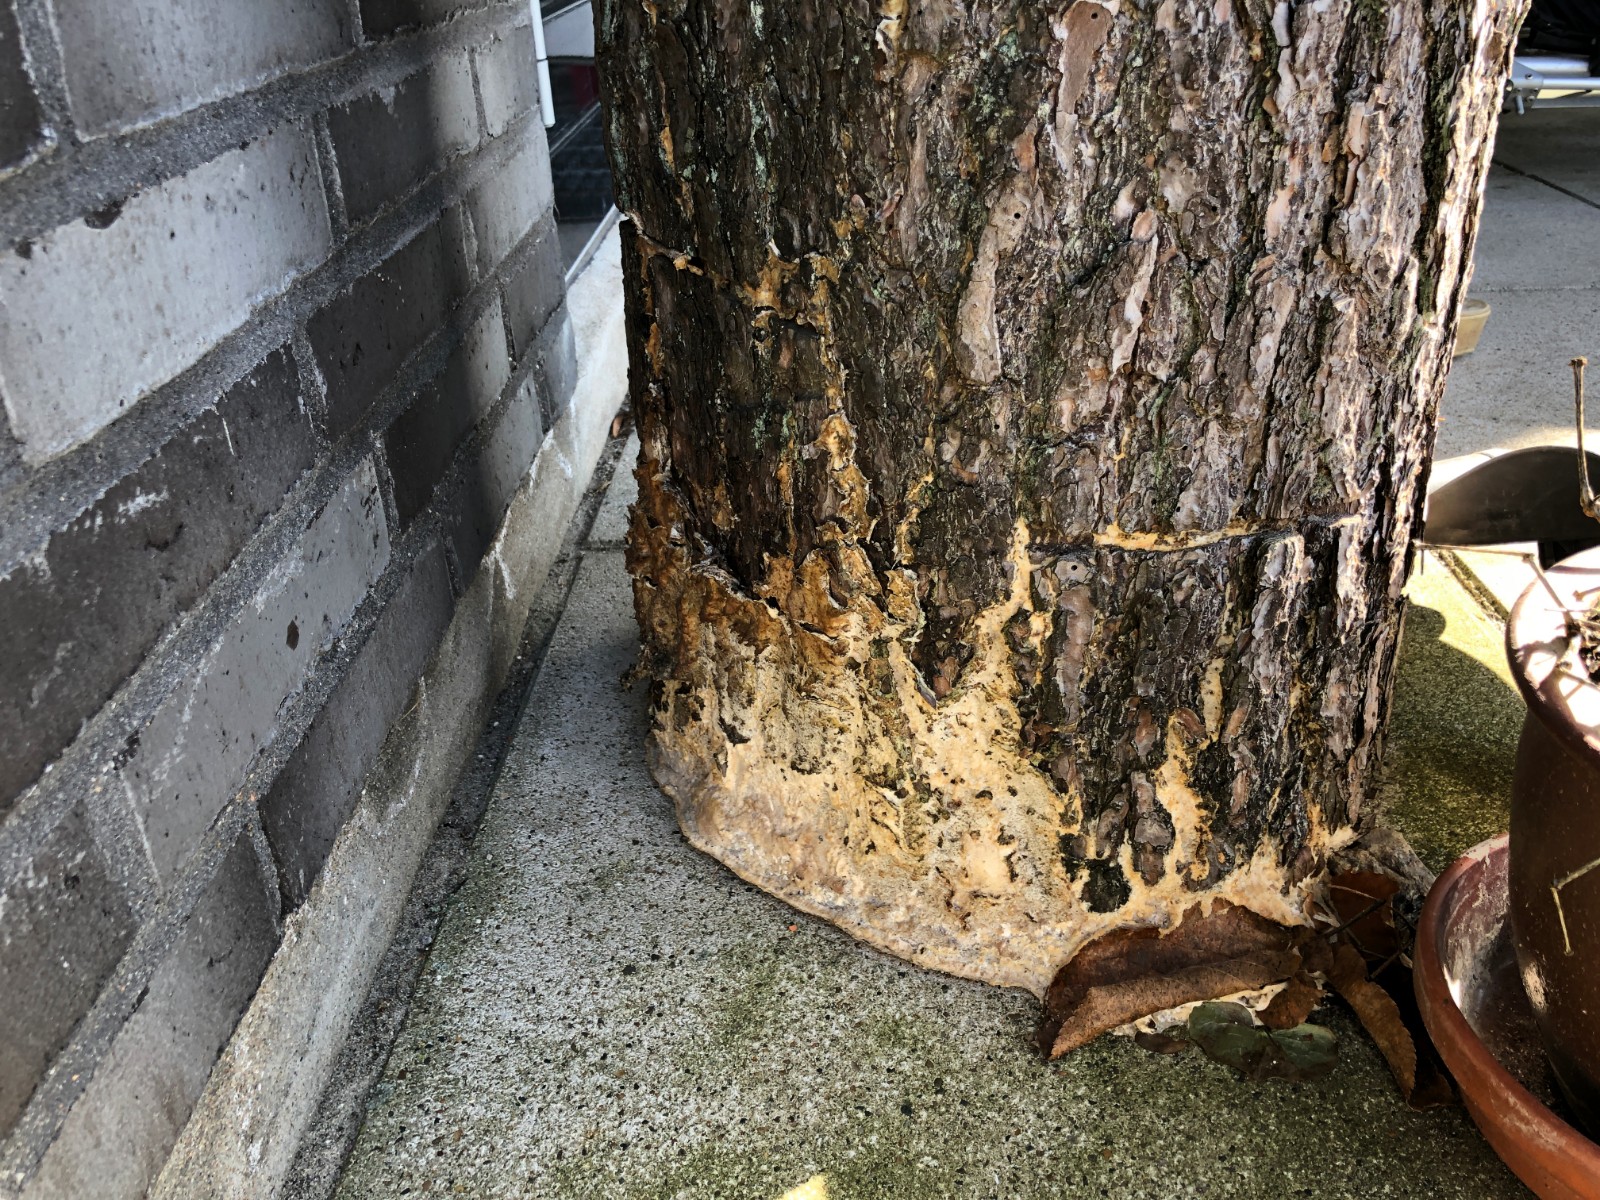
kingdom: Fungi
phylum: Basidiomycota
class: Agaricomycetes
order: Polyporales
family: Phanerochaetaceae
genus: Phlebiopsis
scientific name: Phlebiopsis gigantea
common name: kæmpebarksvamp
